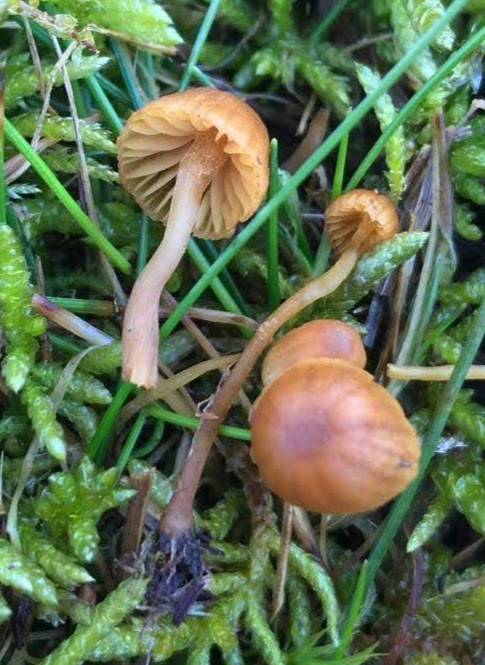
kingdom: Fungi
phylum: Basidiomycota
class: Agaricomycetes
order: Agaricales
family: Hymenogastraceae
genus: Galerina
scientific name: Galerina
